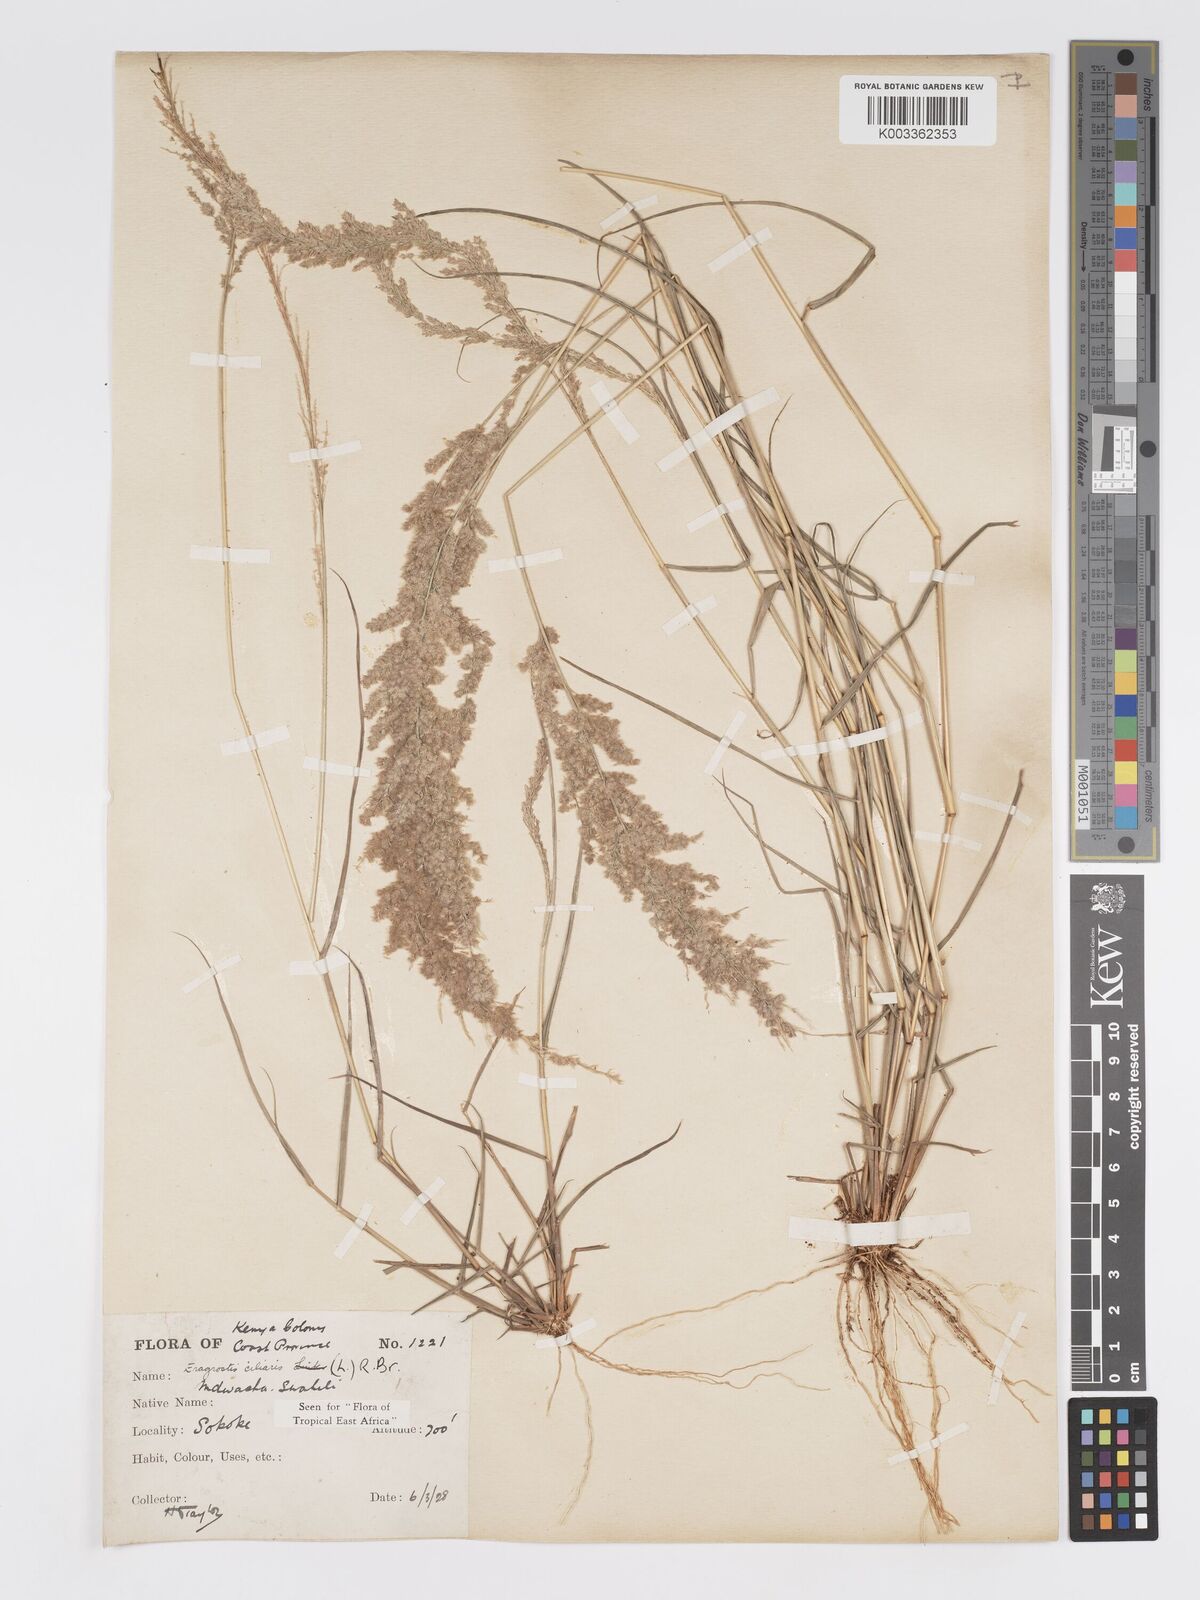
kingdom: Plantae
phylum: Tracheophyta
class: Liliopsida
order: Poales
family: Poaceae
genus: Eragrostis
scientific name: Eragrostis ciliaris
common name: Gophertail lovegrass
